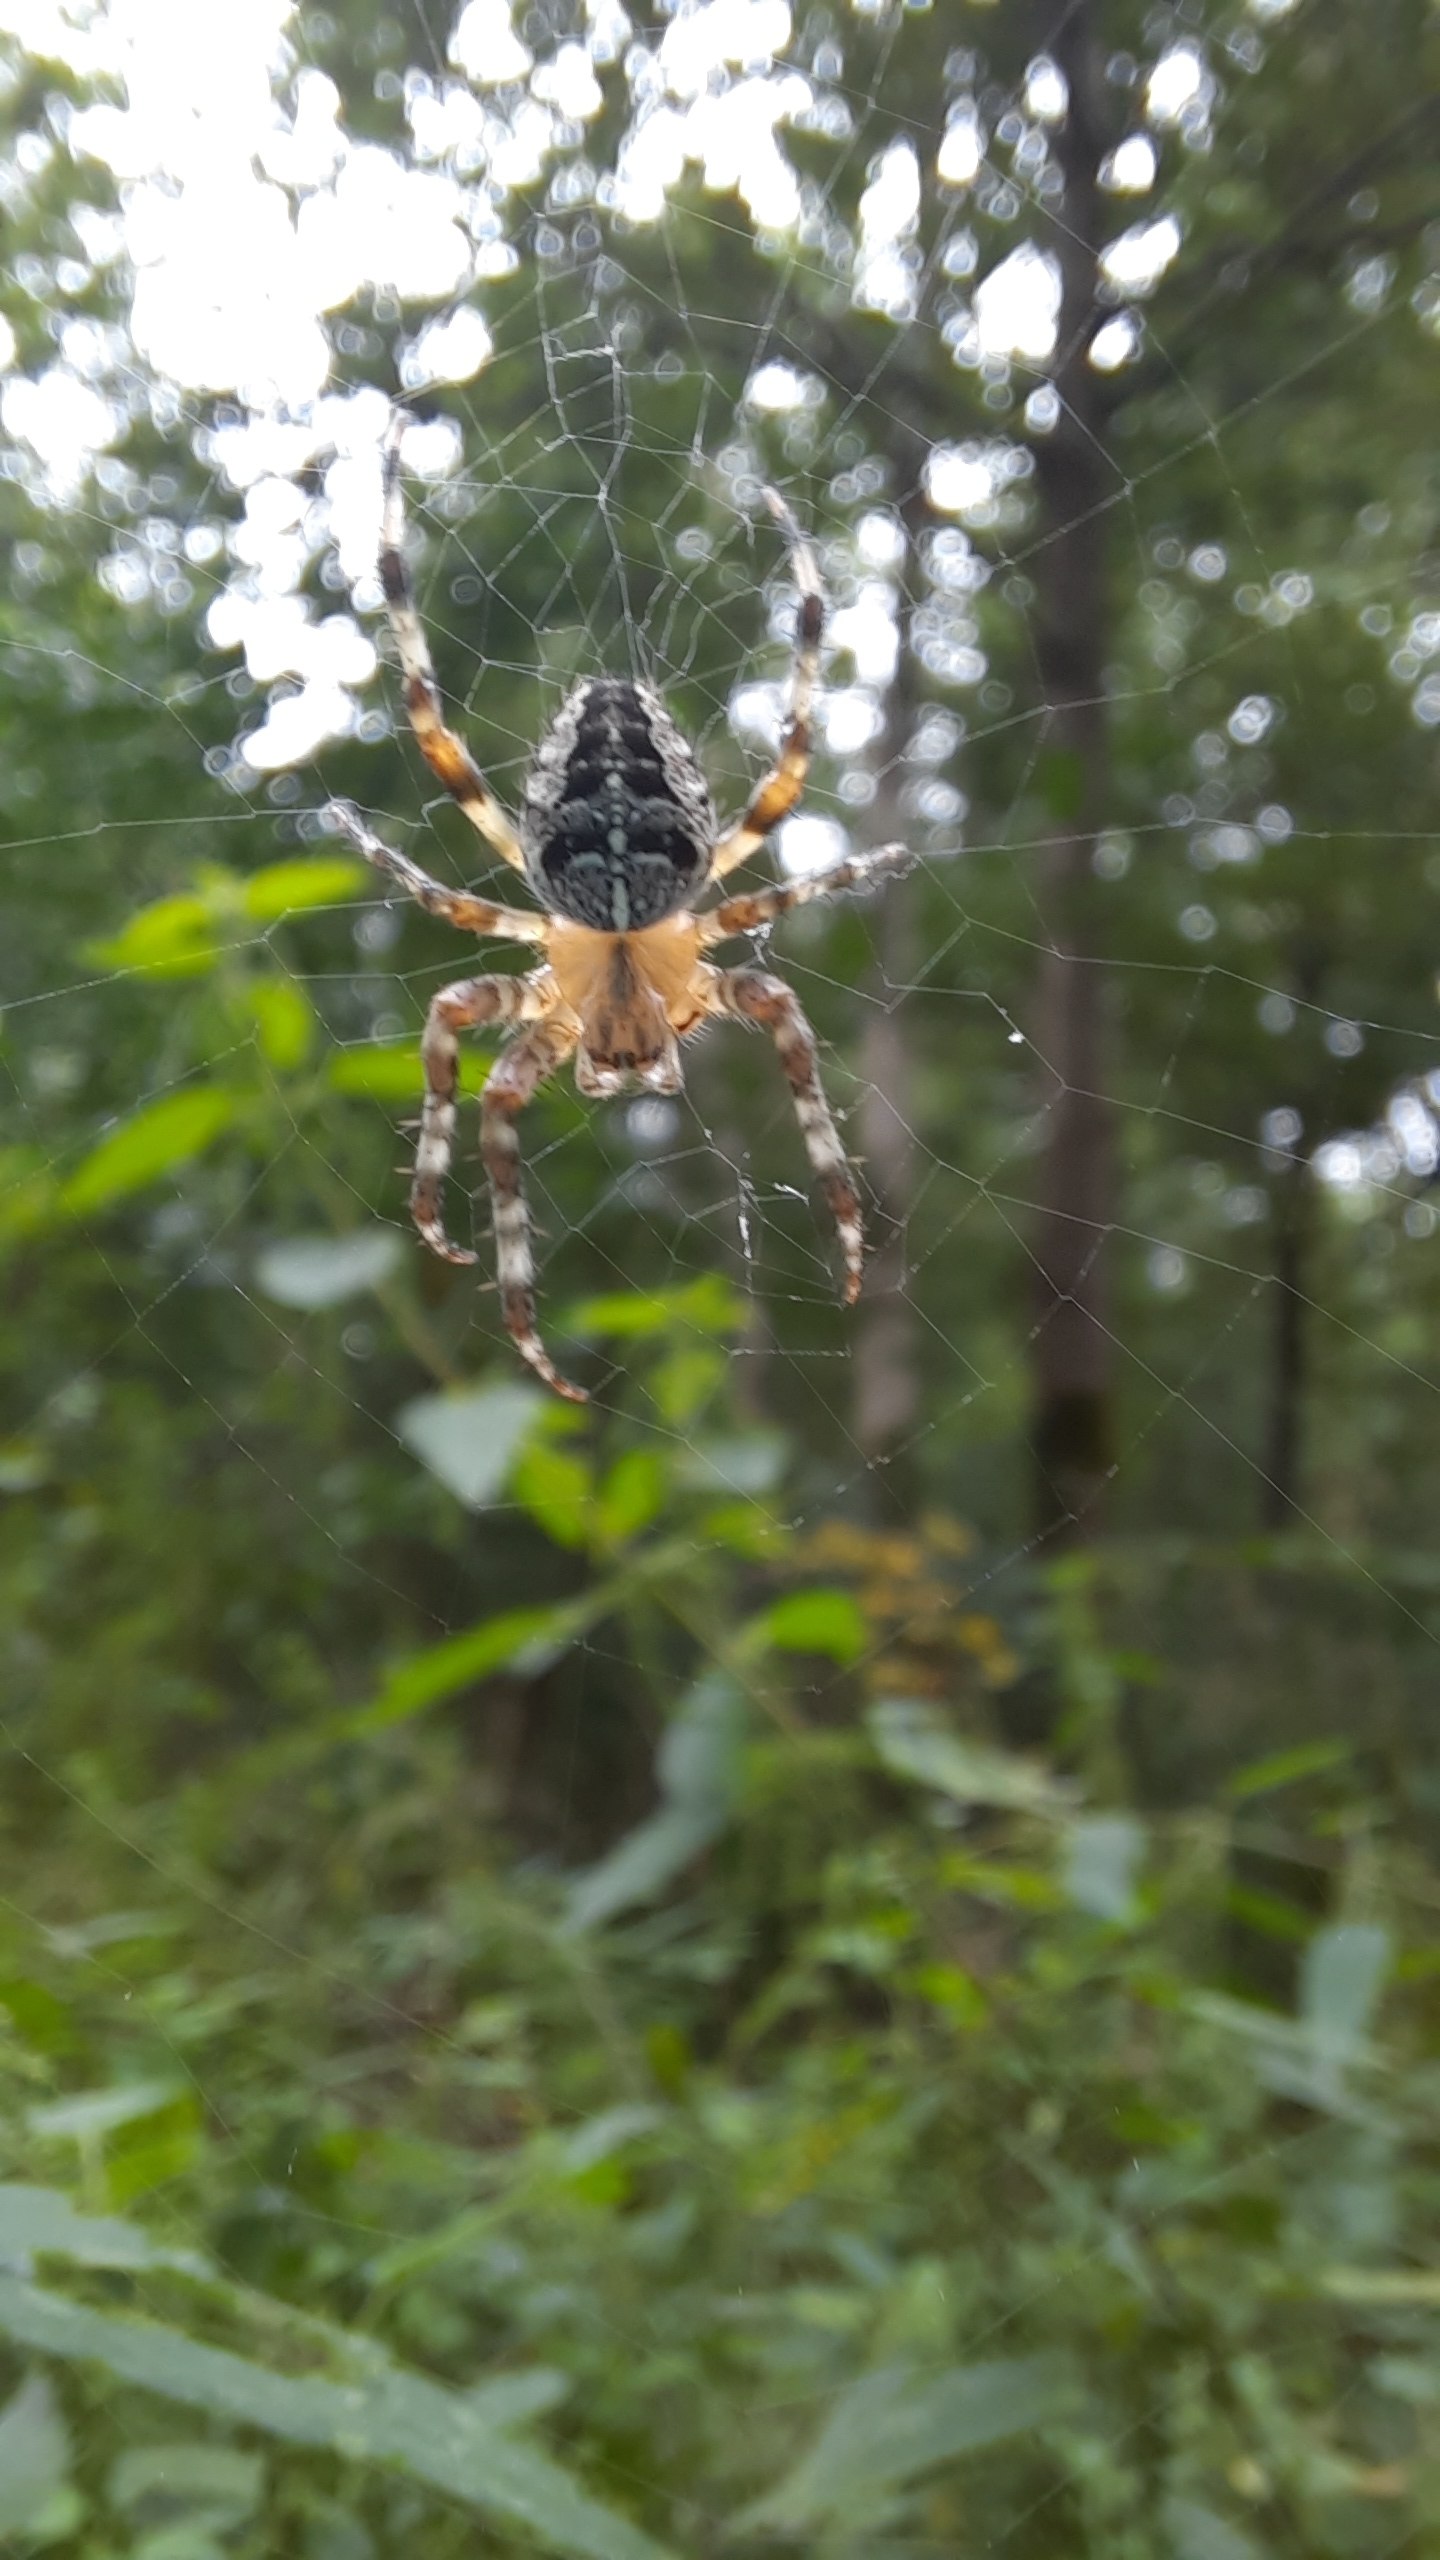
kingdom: Animalia
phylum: Arthropoda
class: Arachnida
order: Araneae
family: Araneidae
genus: Araneus
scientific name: Araneus diadematus
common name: Korsedderkop
